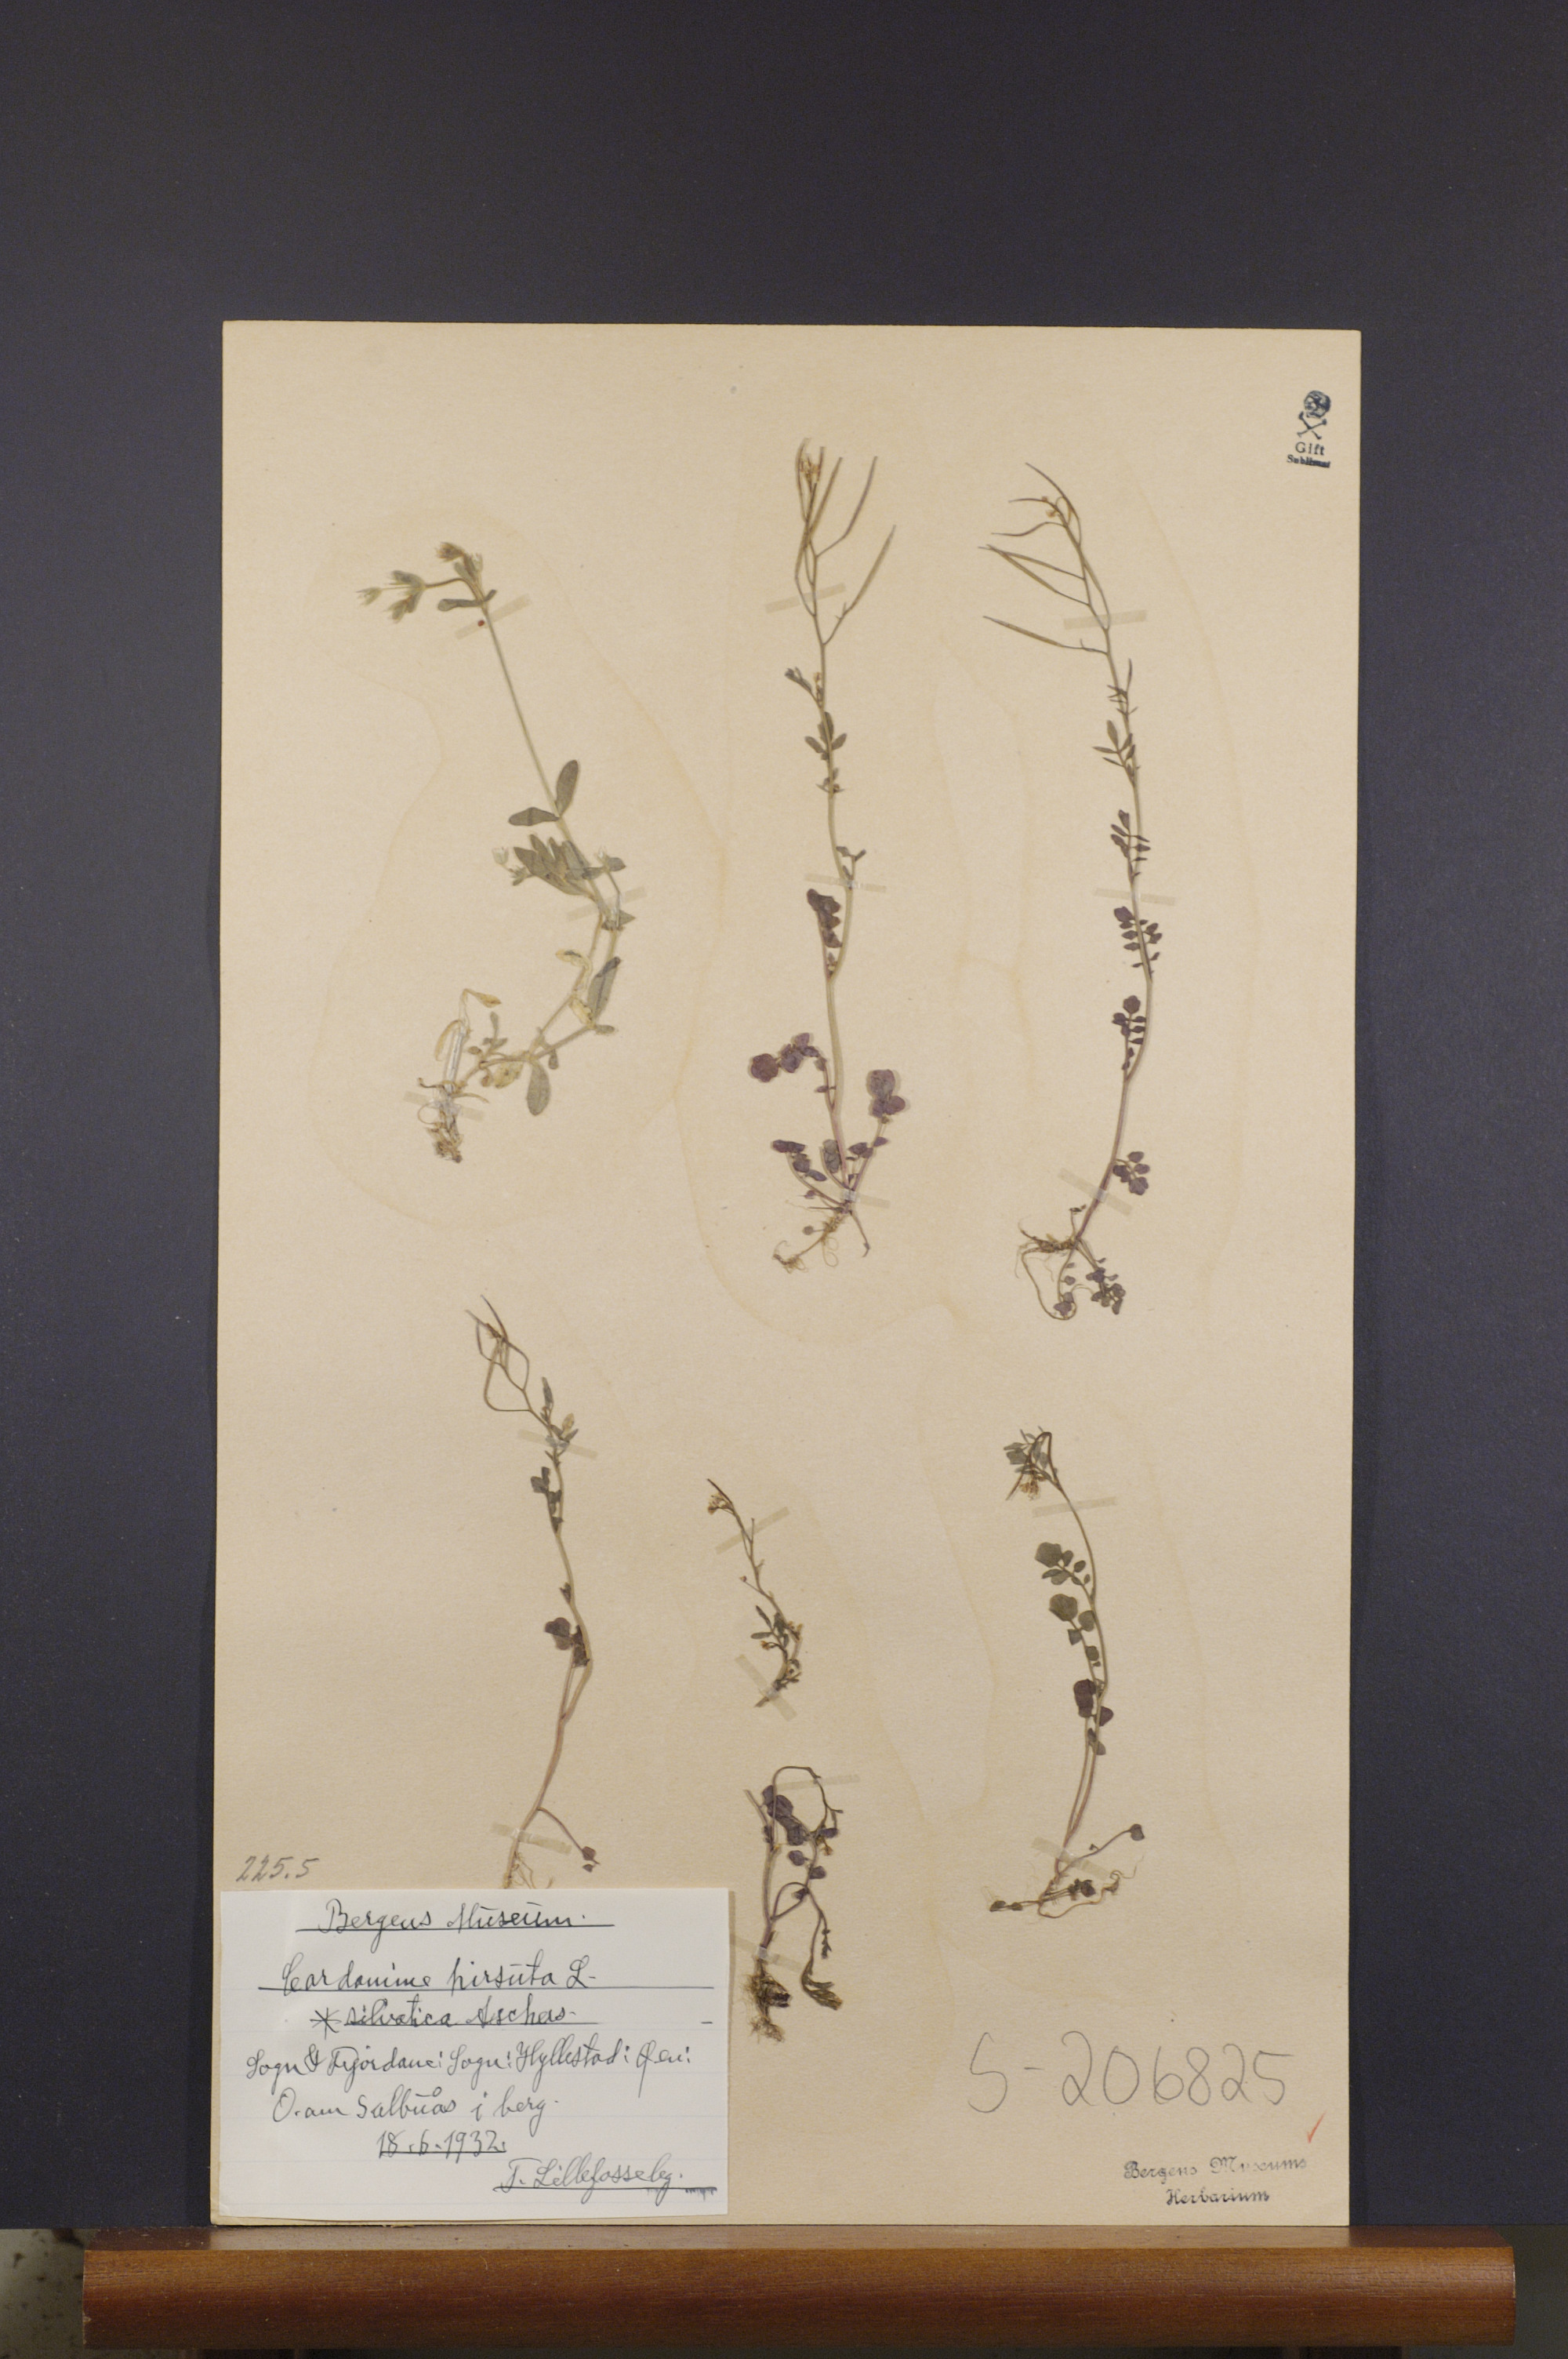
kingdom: Plantae
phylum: Tracheophyta
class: Magnoliopsida
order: Brassicales
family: Brassicaceae
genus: Cardamine
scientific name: Cardamine flexuosa
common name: Woodland bittercress
